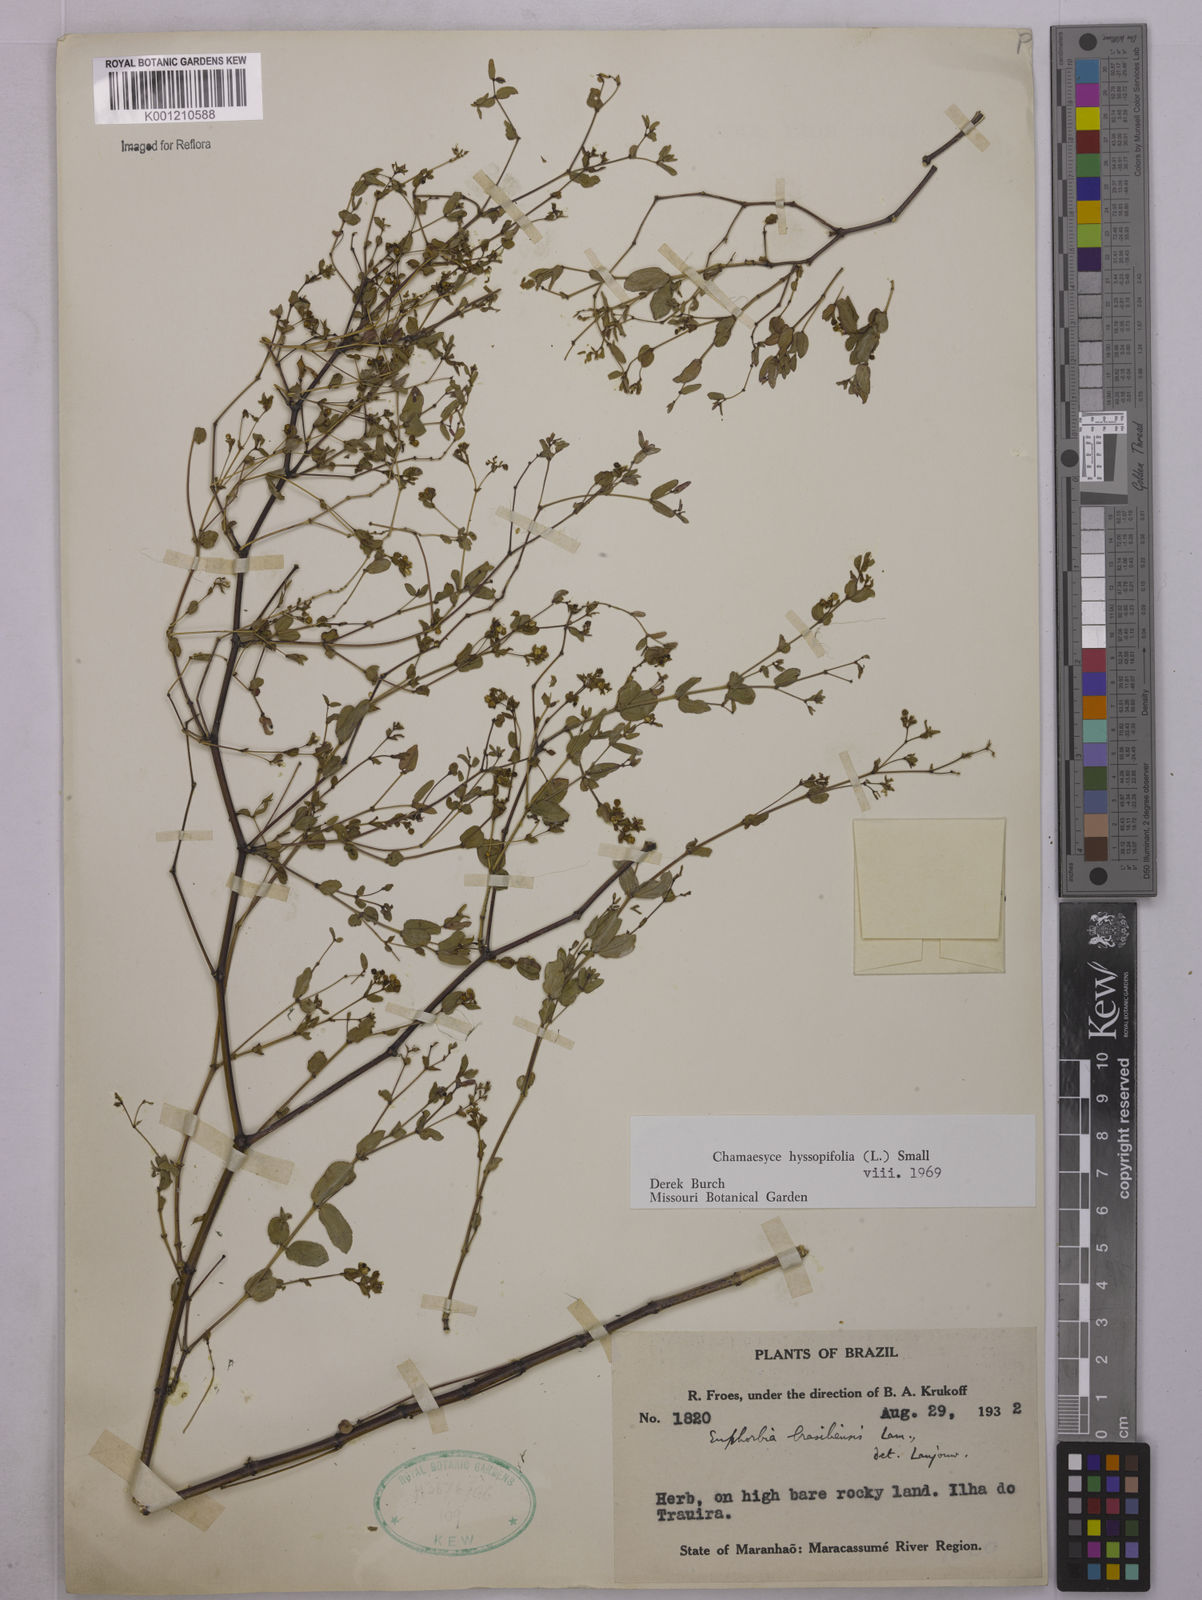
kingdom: Plantae
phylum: Tracheophyta
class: Magnoliopsida
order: Malpighiales
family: Euphorbiaceae
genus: Euphorbia
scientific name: Euphorbia hyssopifolia
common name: Hyssopleaf sandmat
